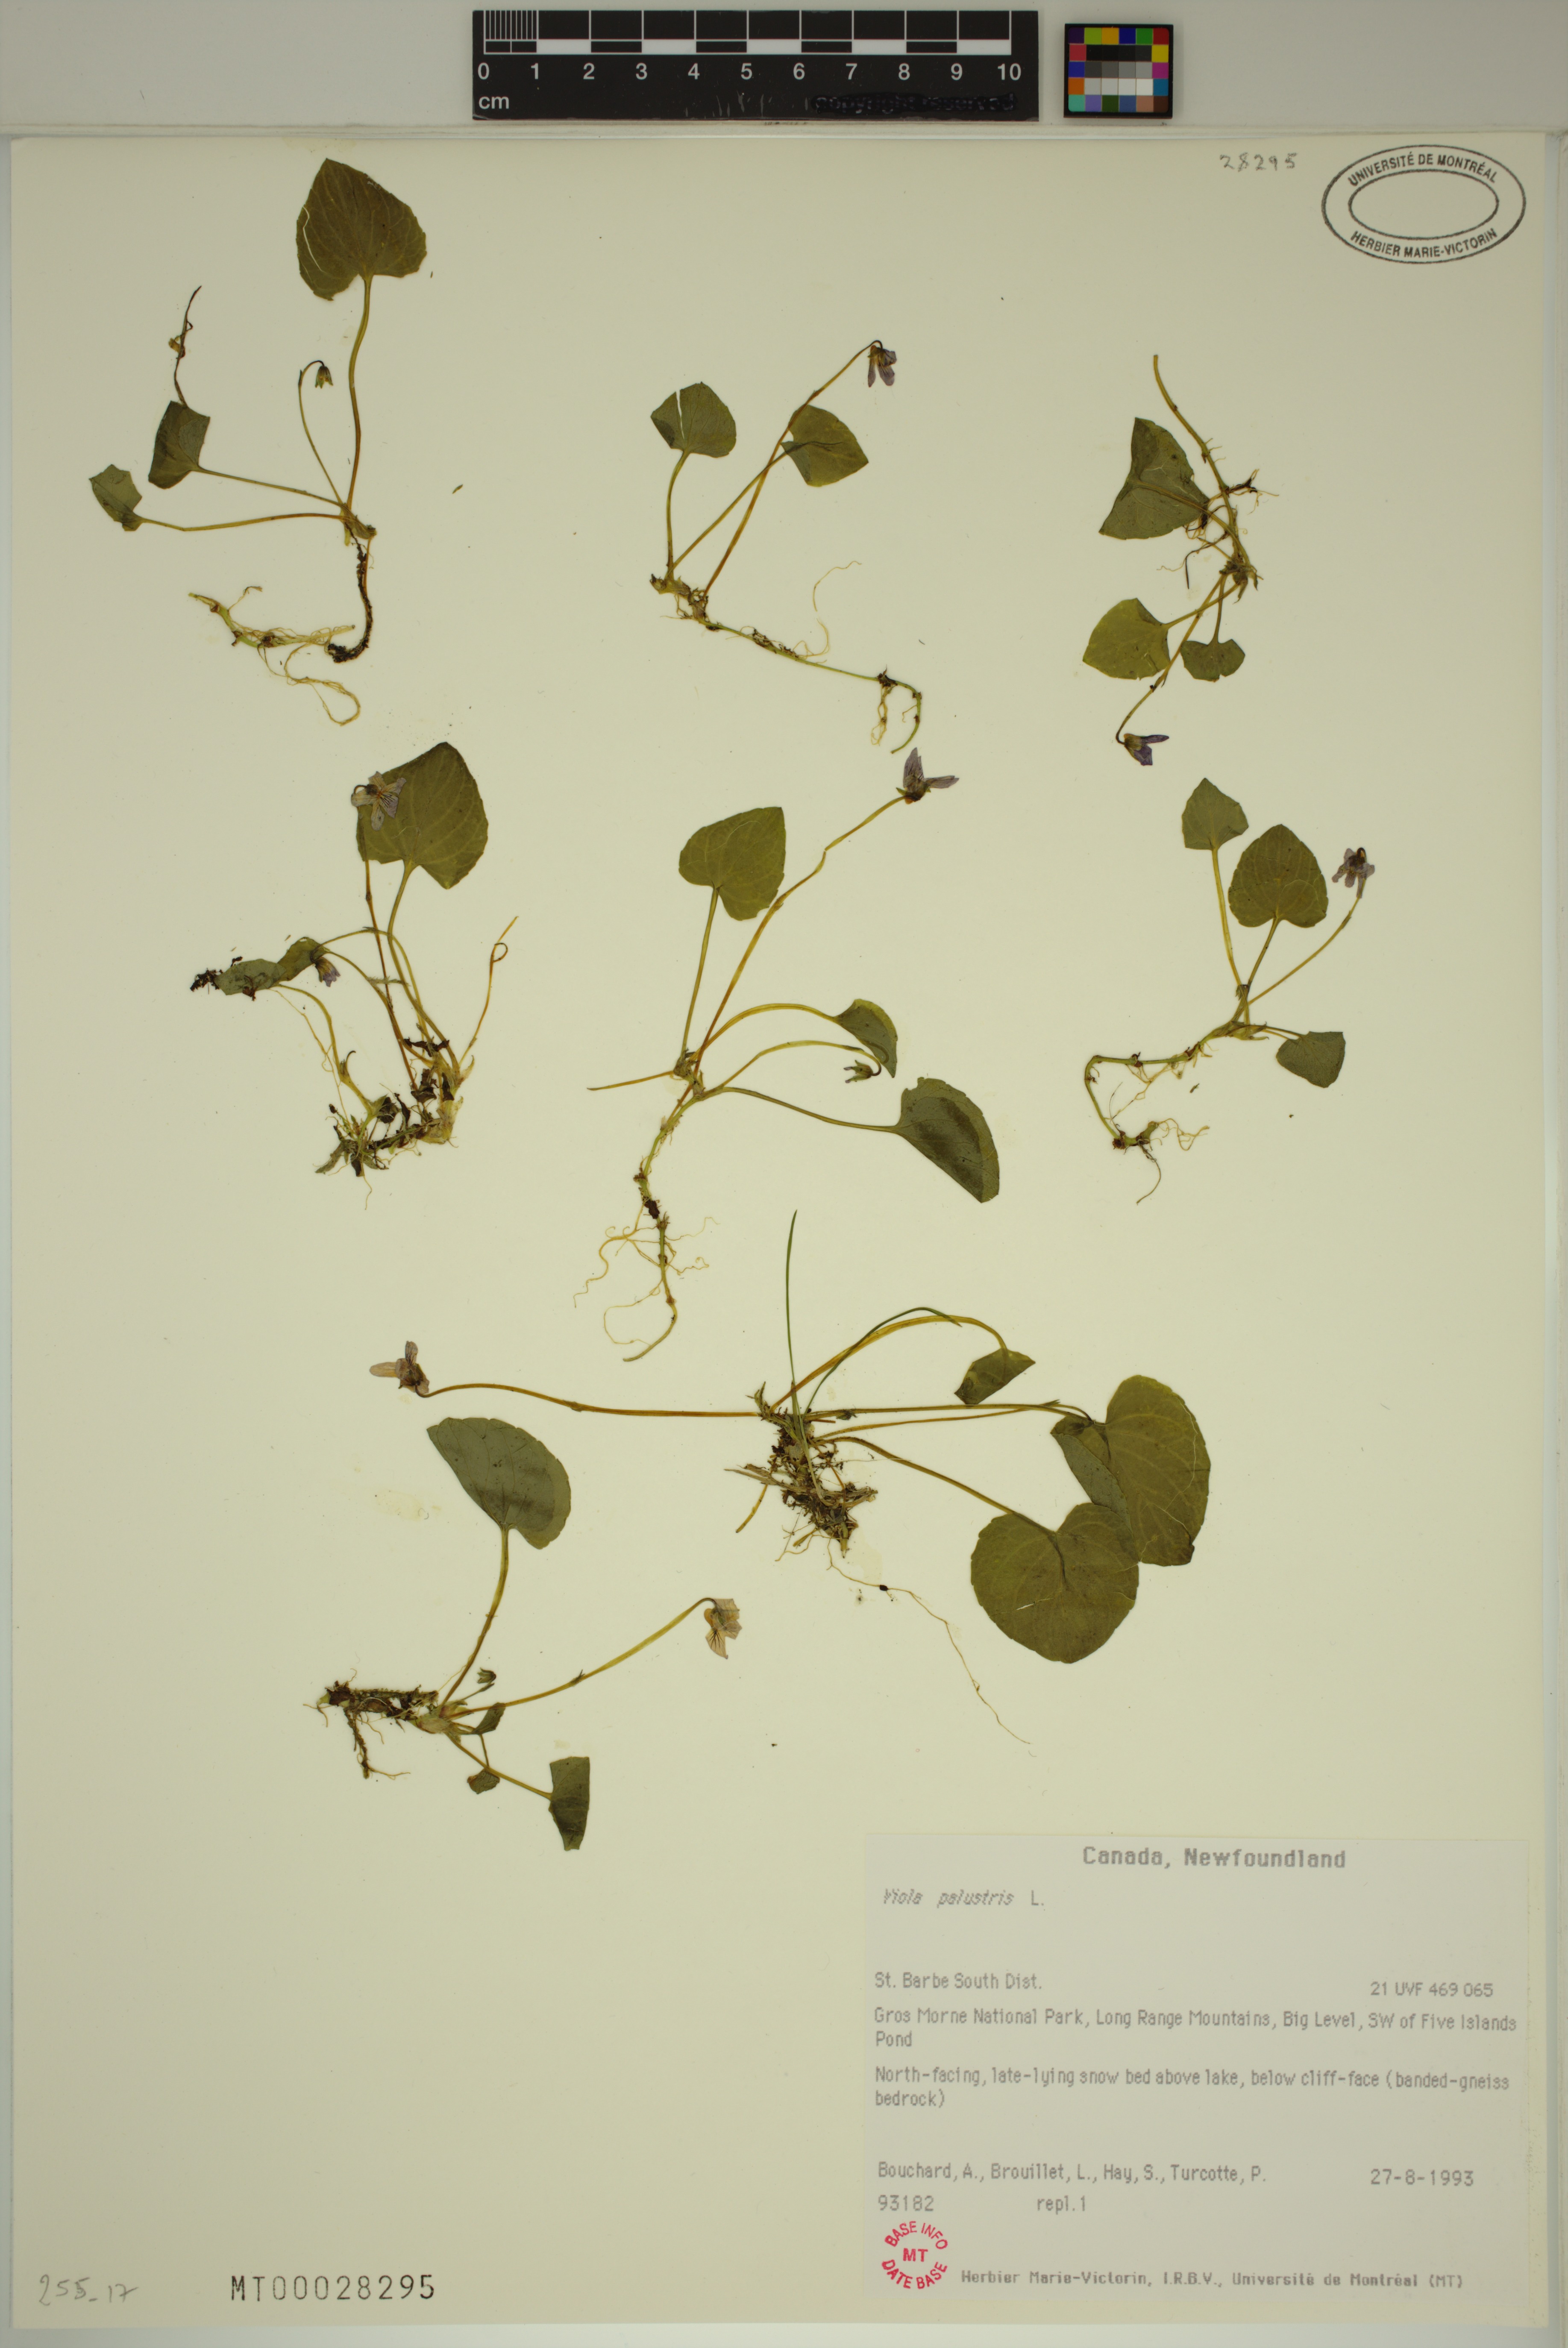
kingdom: Plantae
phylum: Tracheophyta
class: Magnoliopsida
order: Malpighiales
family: Violaceae
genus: Viola
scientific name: Viola palustris
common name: Marsh violet
